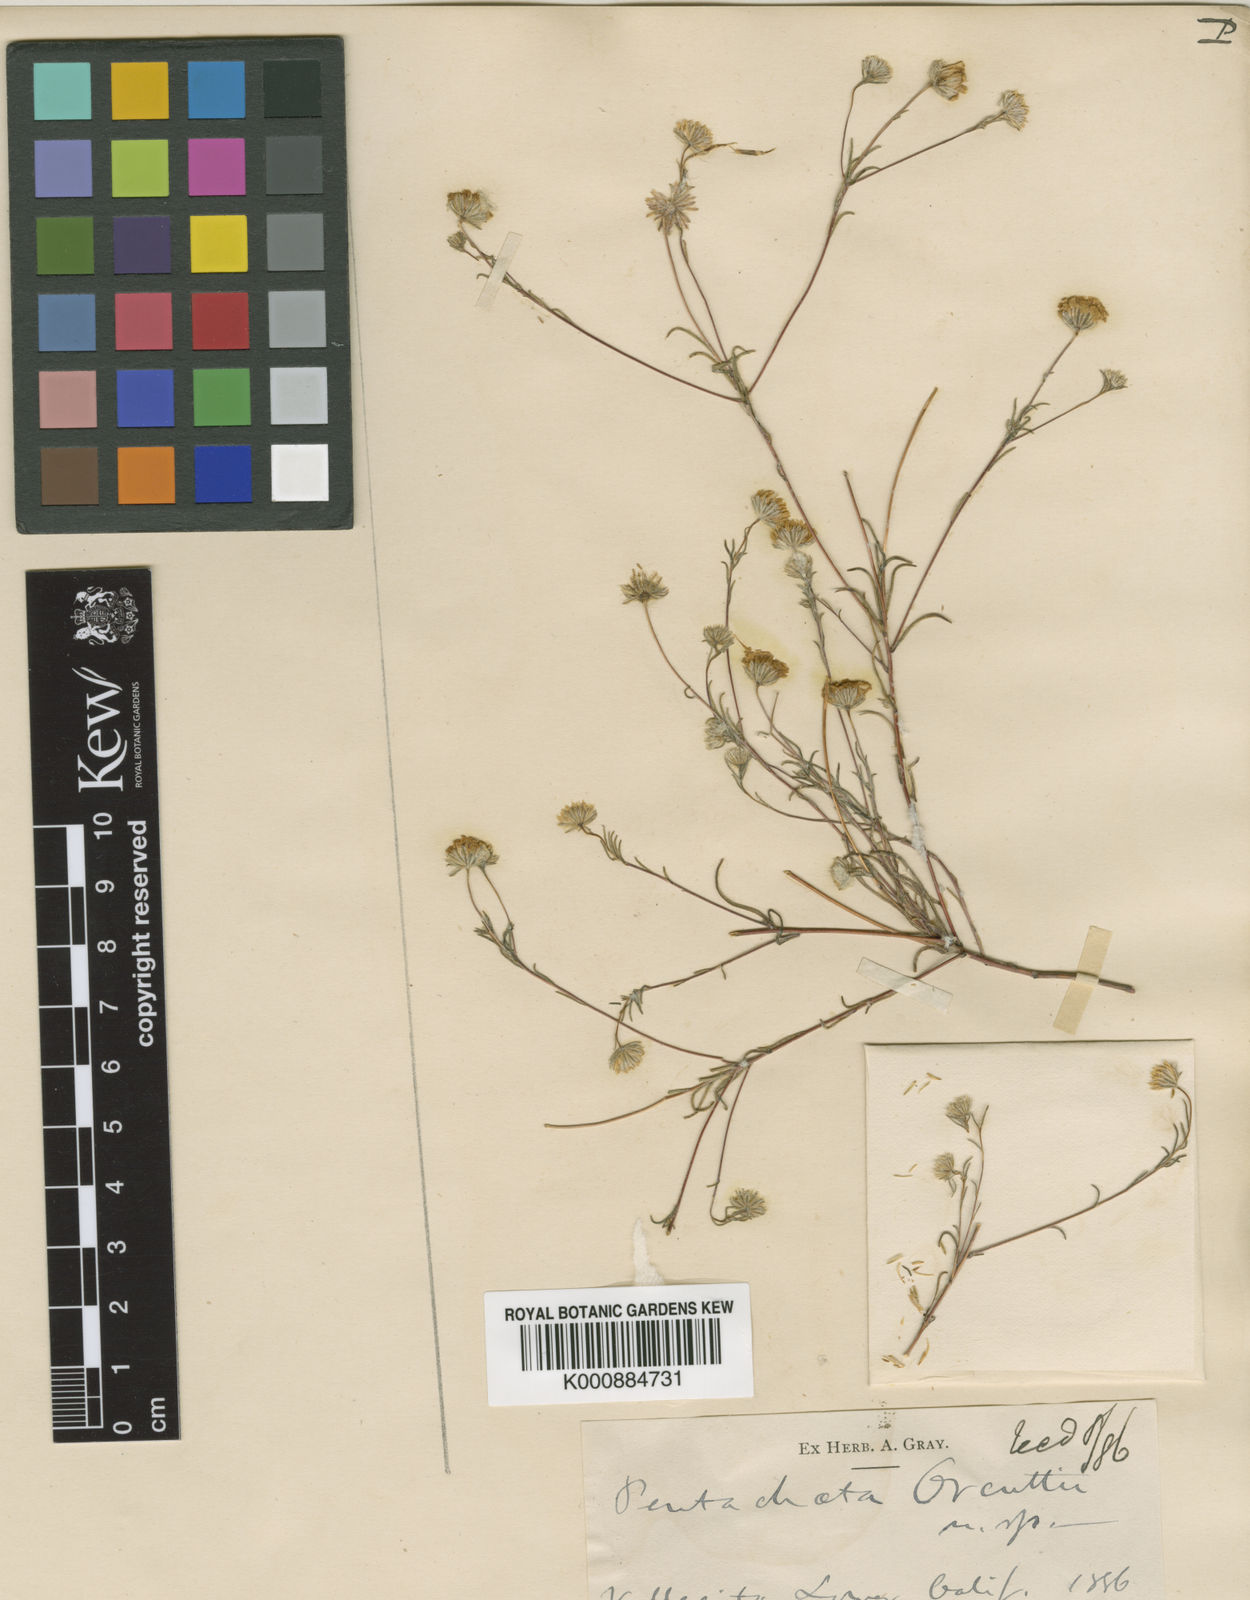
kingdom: Plantae
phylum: Tracheophyta
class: Magnoliopsida
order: Asterales
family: Asteraceae
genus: Pentachaeta
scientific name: Pentachaeta
